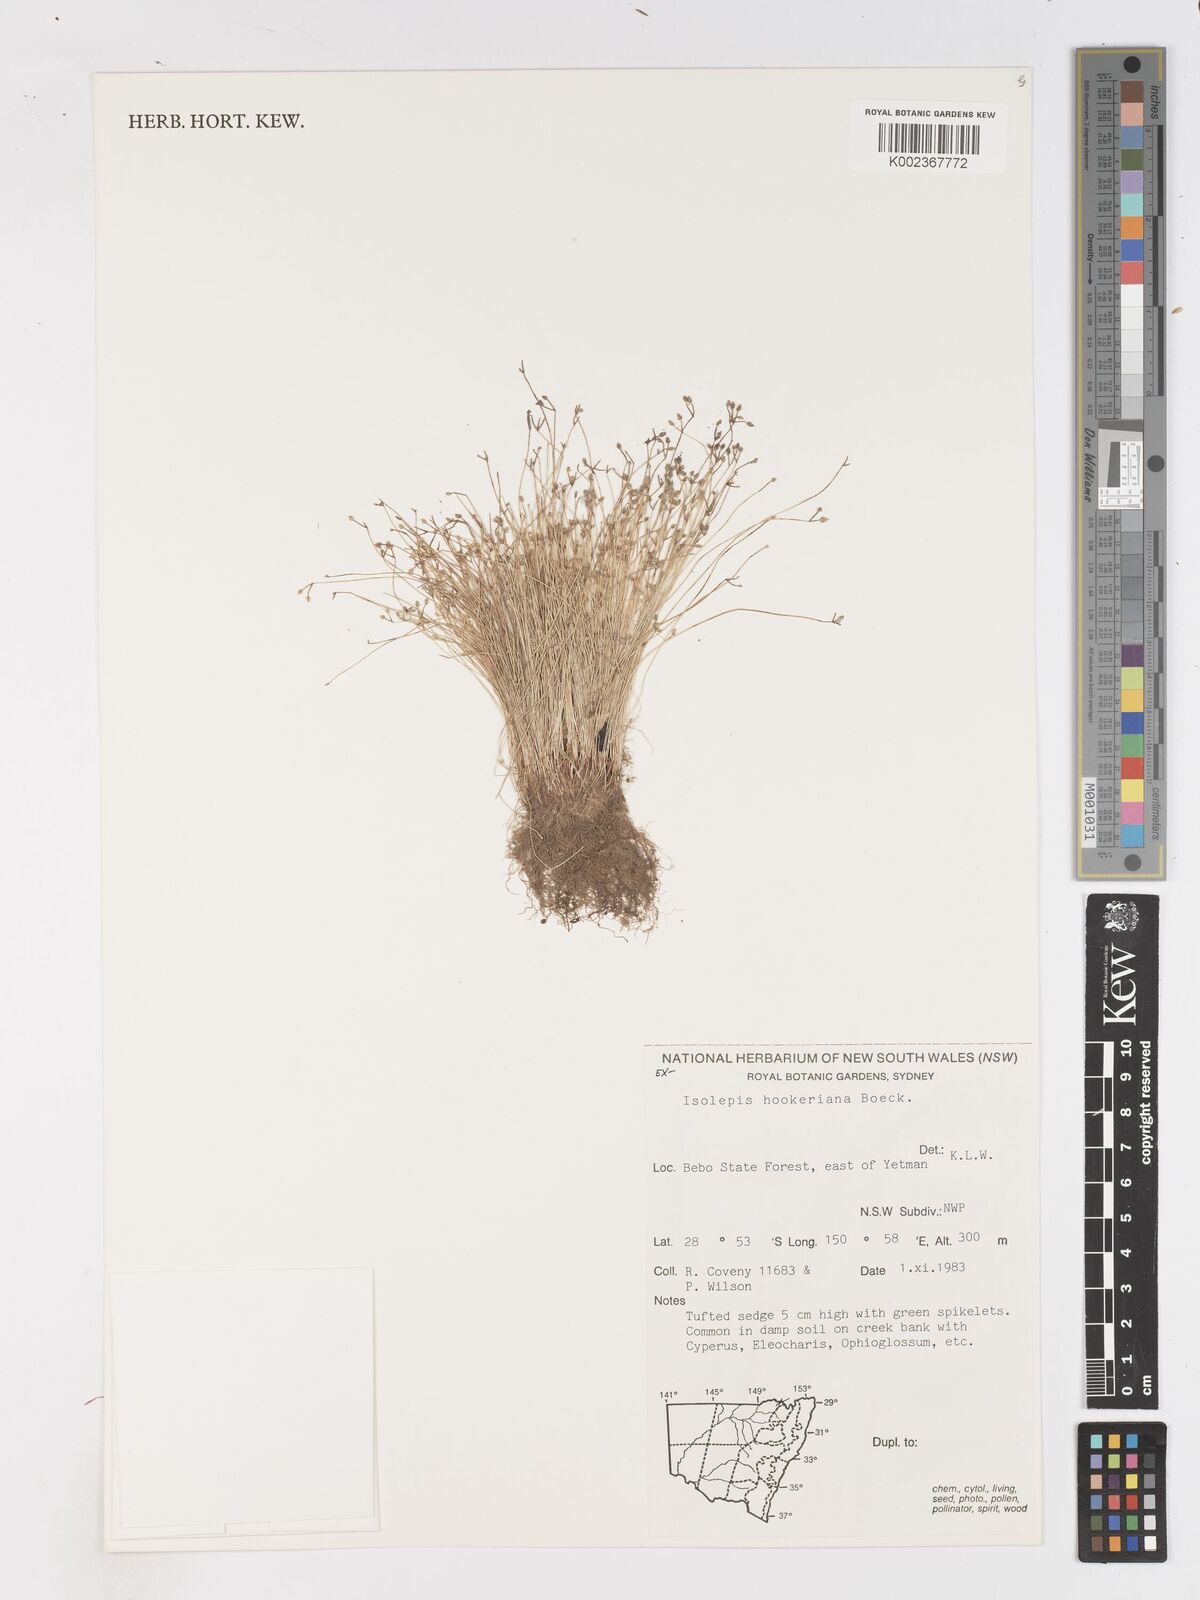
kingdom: Plantae
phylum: Tracheophyta
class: Liliopsida
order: Poales
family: Cyperaceae
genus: Isolepis
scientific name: Isolepis multicaulis
